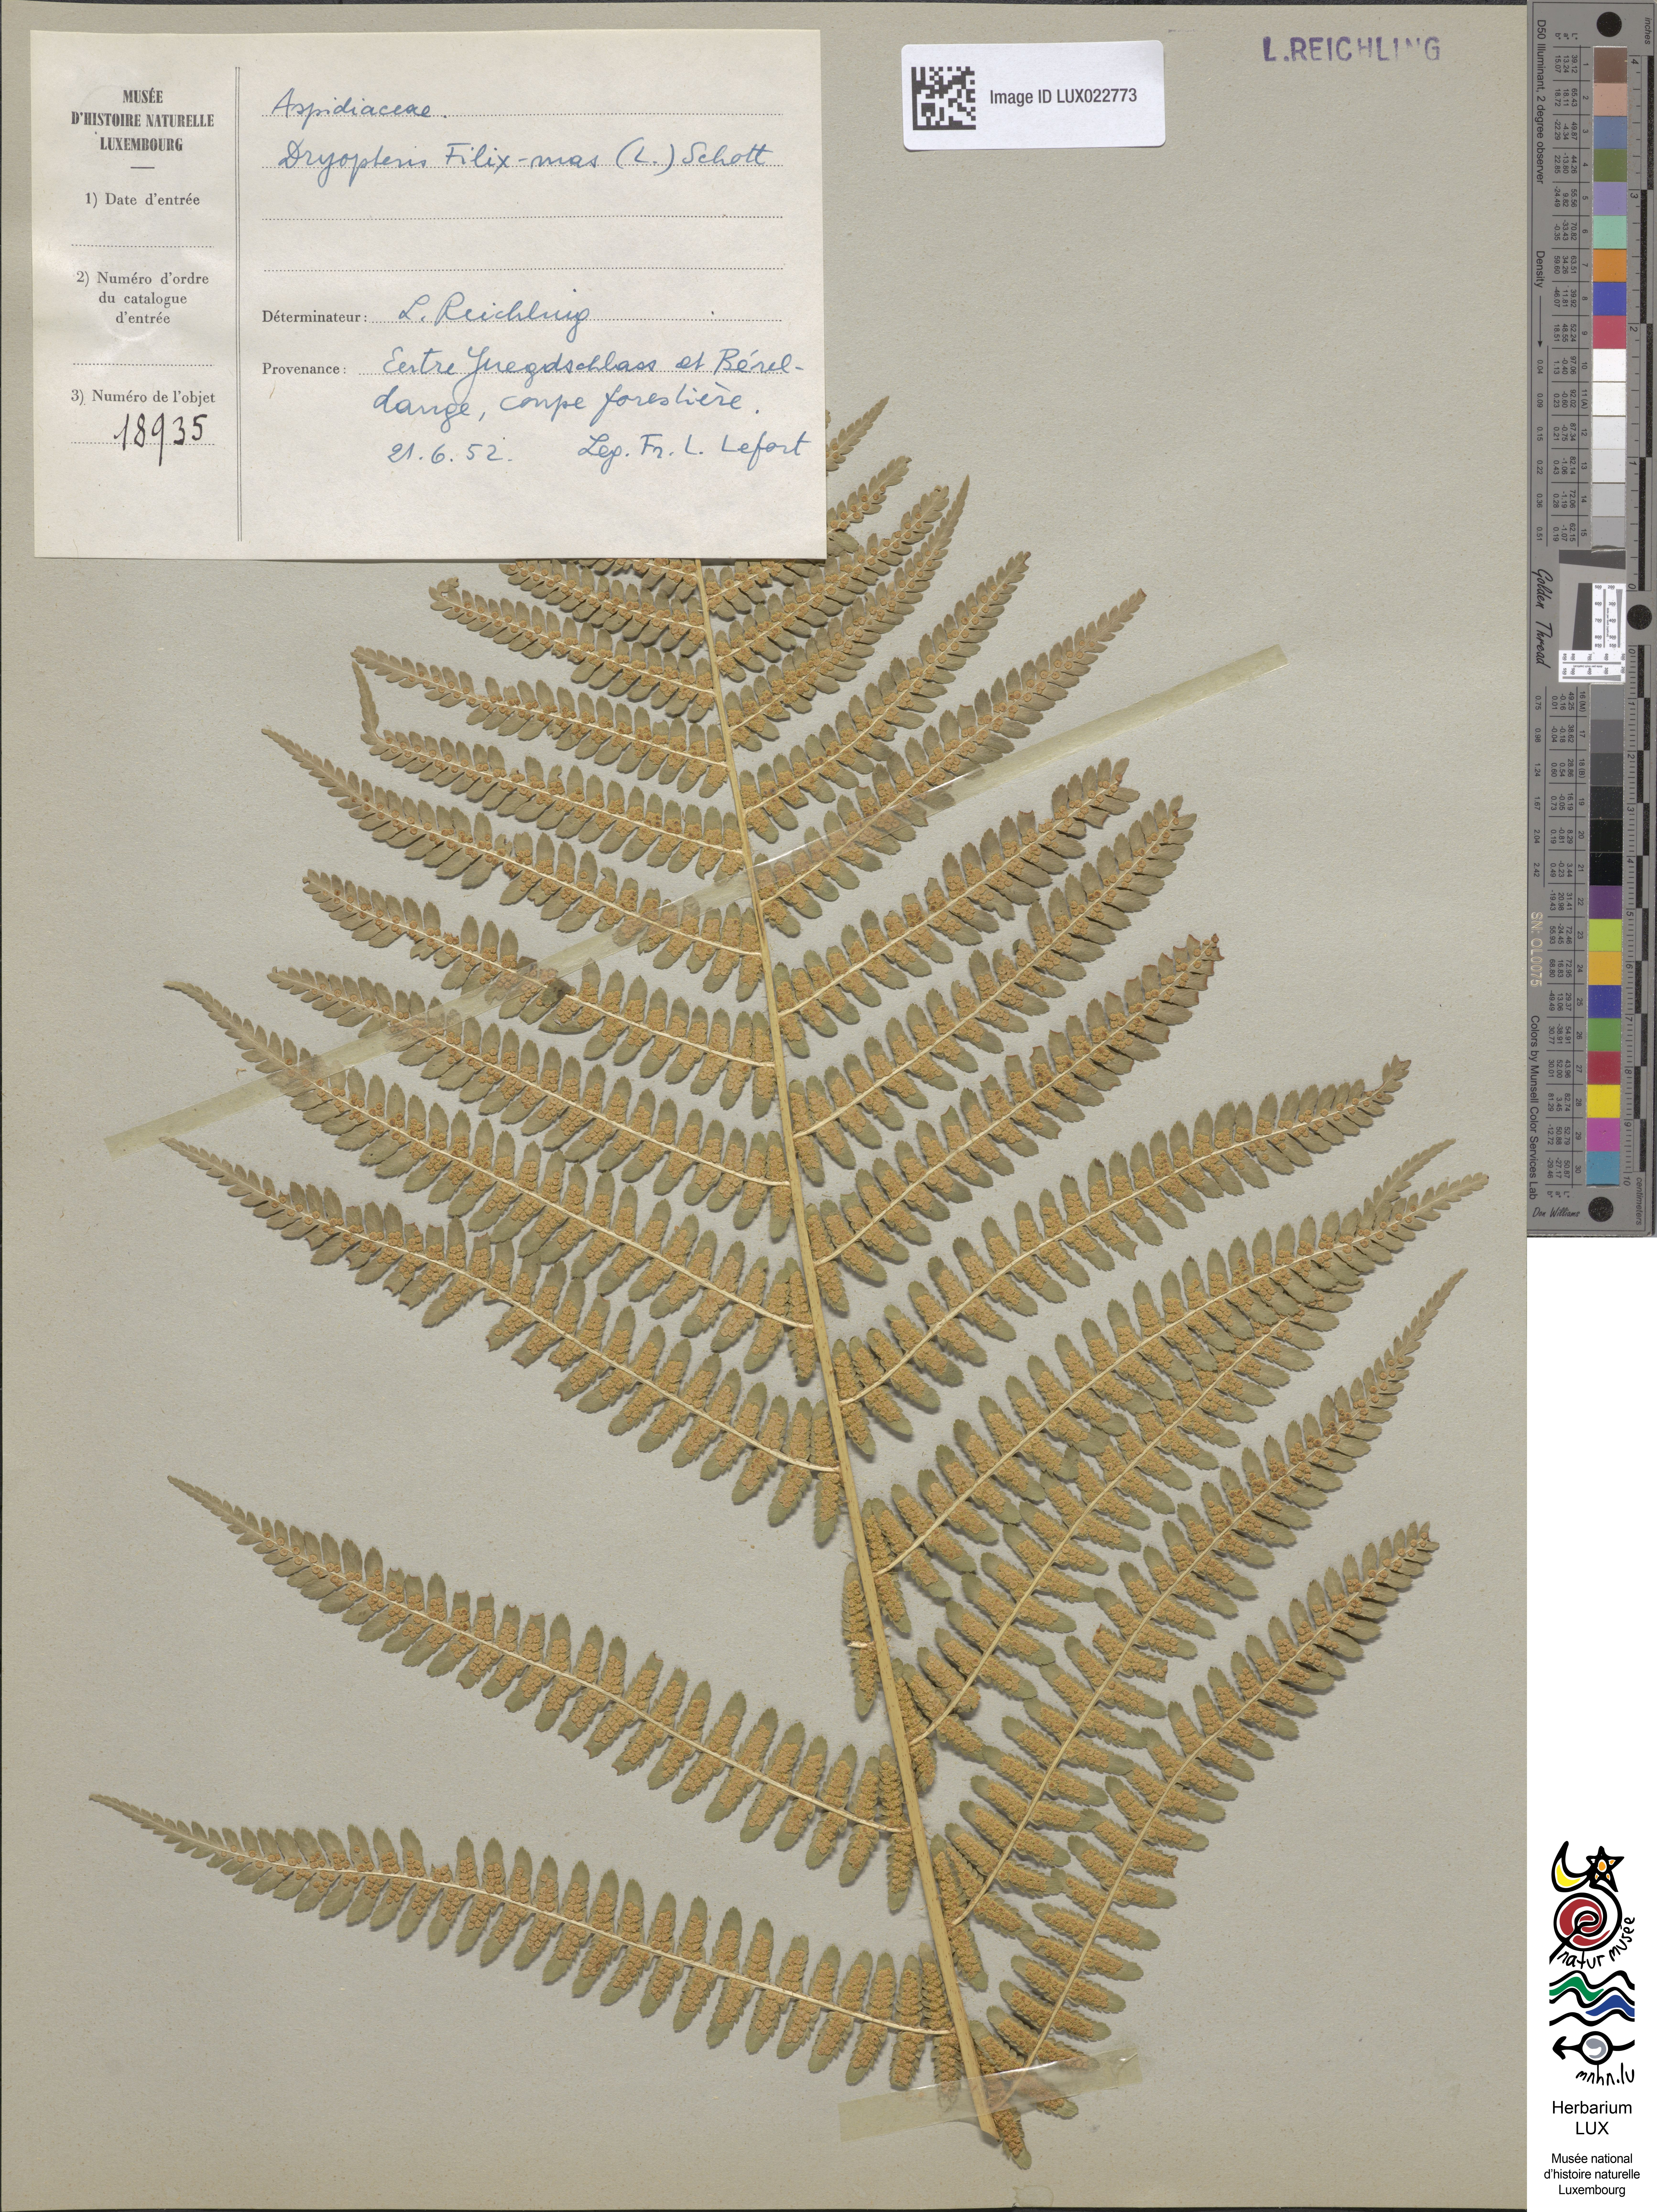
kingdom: Plantae
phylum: Tracheophyta
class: Polypodiopsida
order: Polypodiales
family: Dryopteridaceae
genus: Dryopteris
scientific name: Dryopteris filix-mas
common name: Male fern
